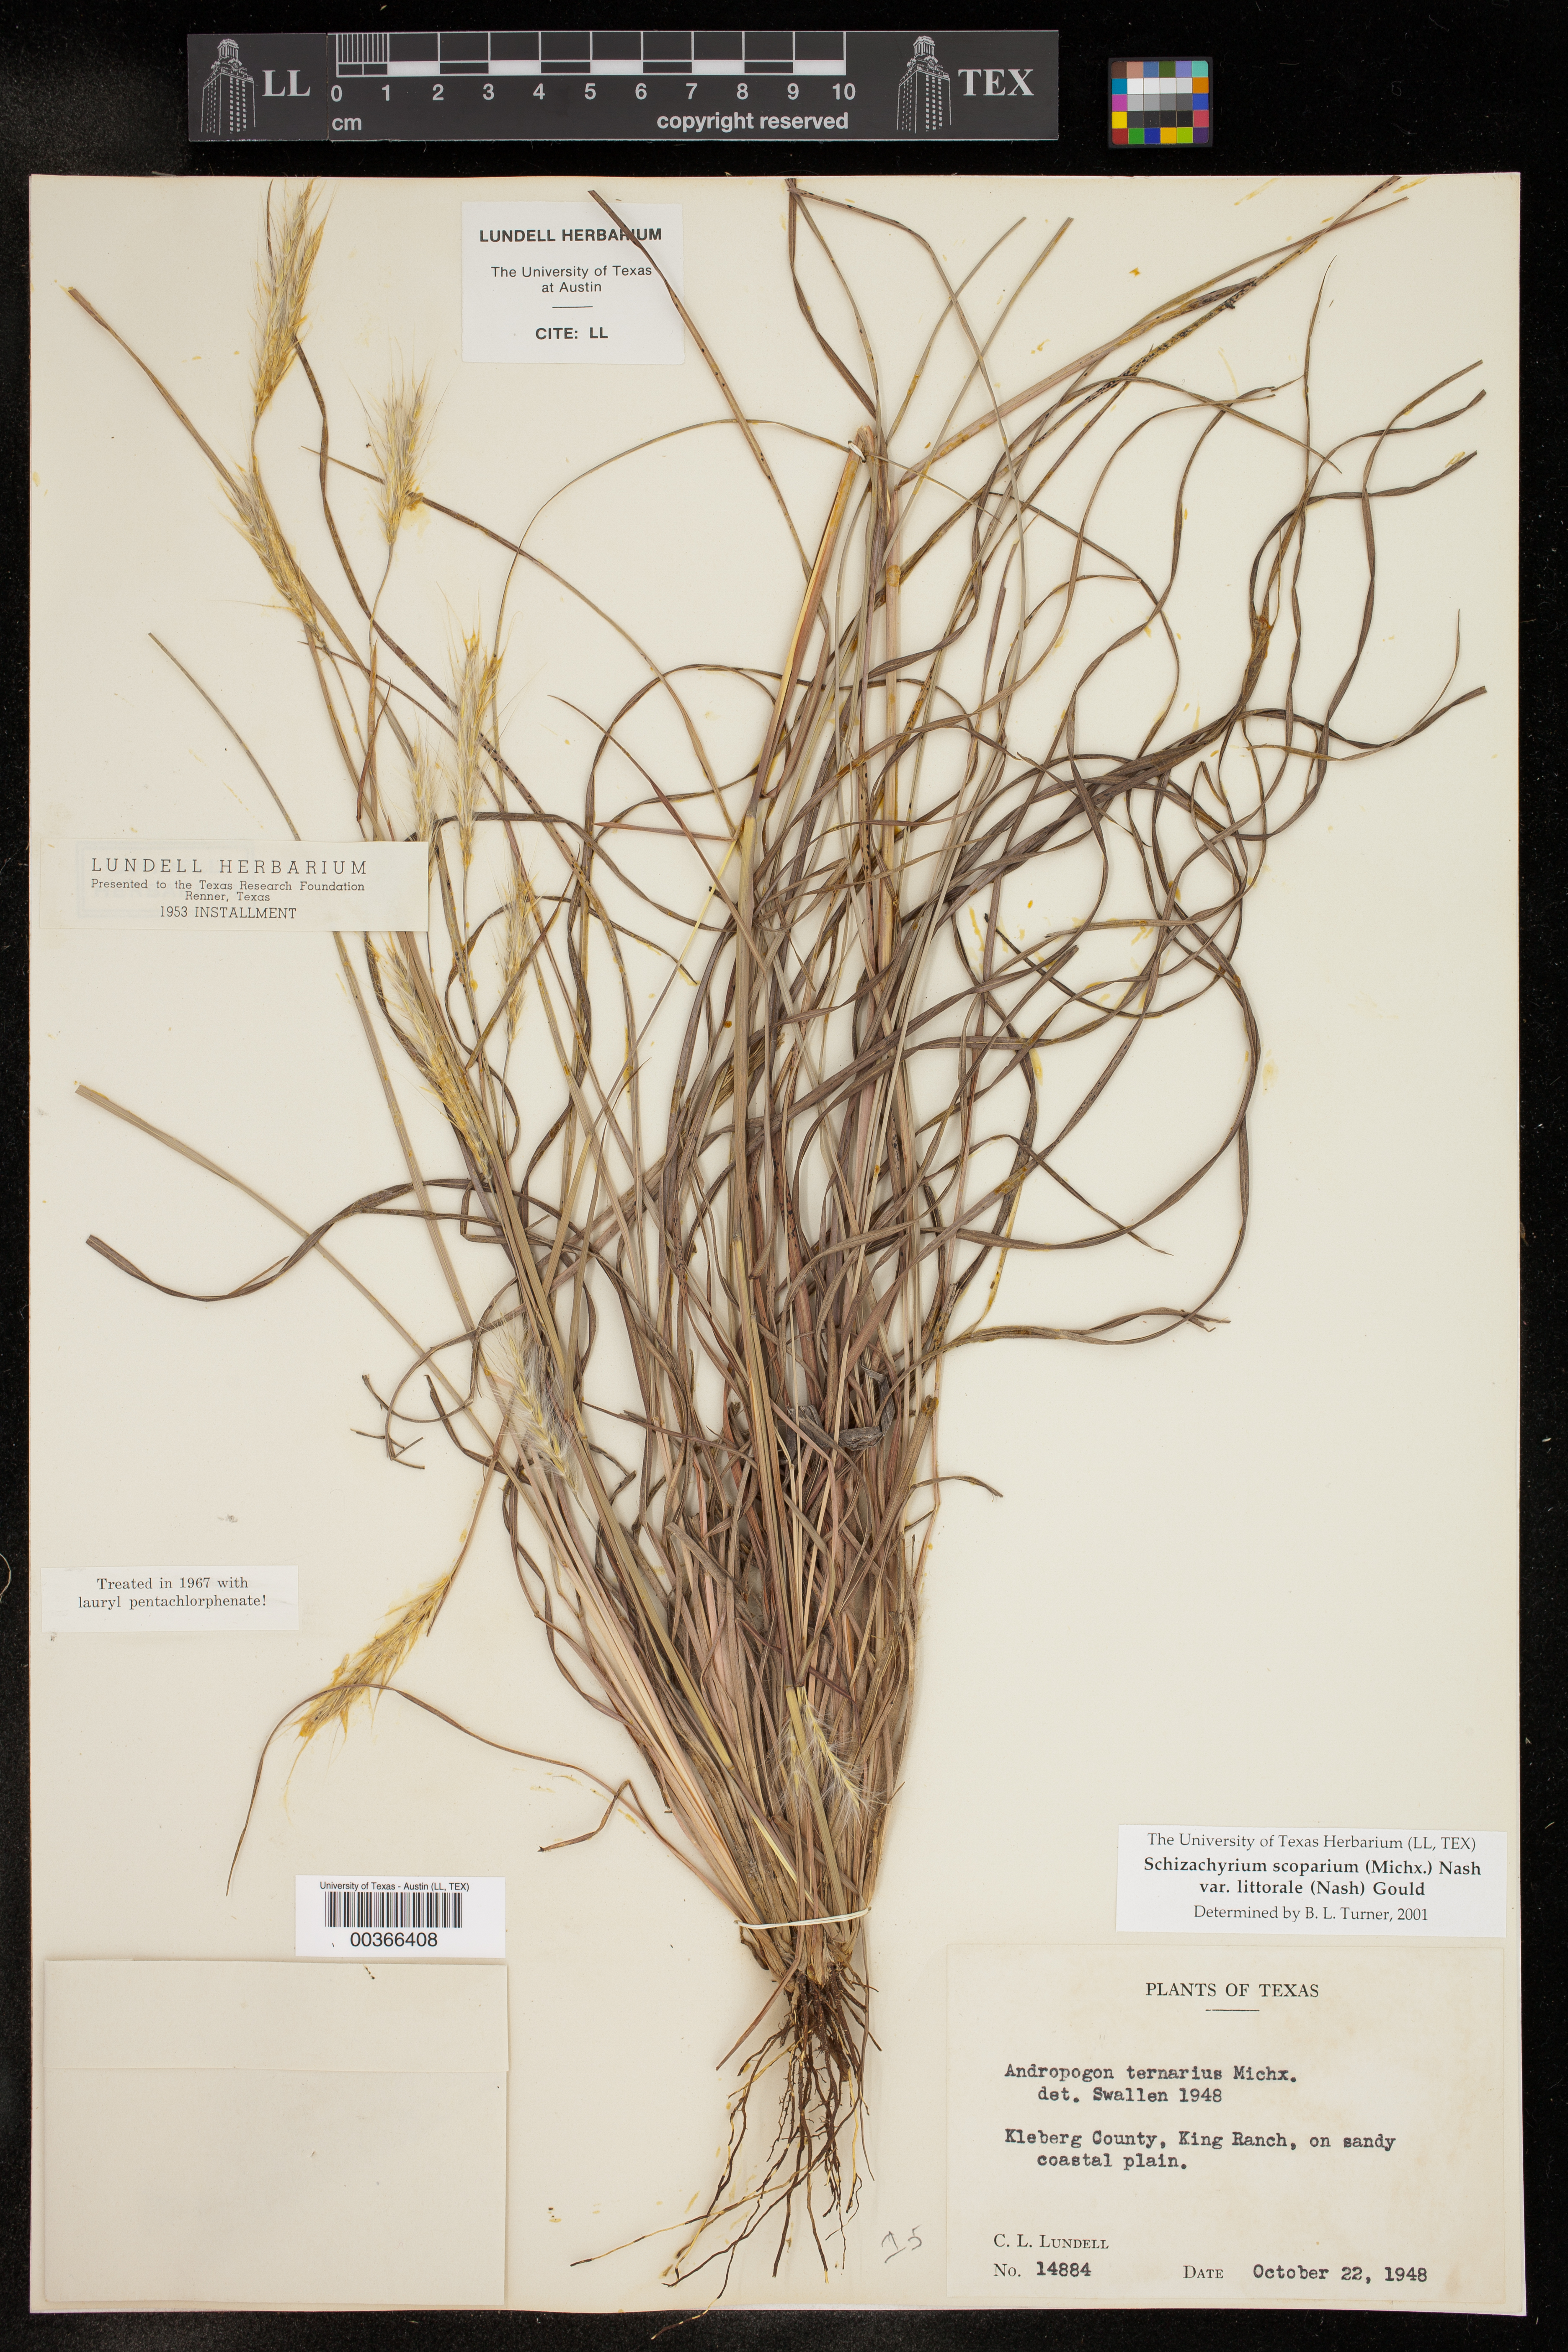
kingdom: Plantae
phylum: Tracheophyta
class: Liliopsida
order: Poales
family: Poaceae
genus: Schizachyrium
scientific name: Schizachyrium scoparium
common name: Little bluestem
